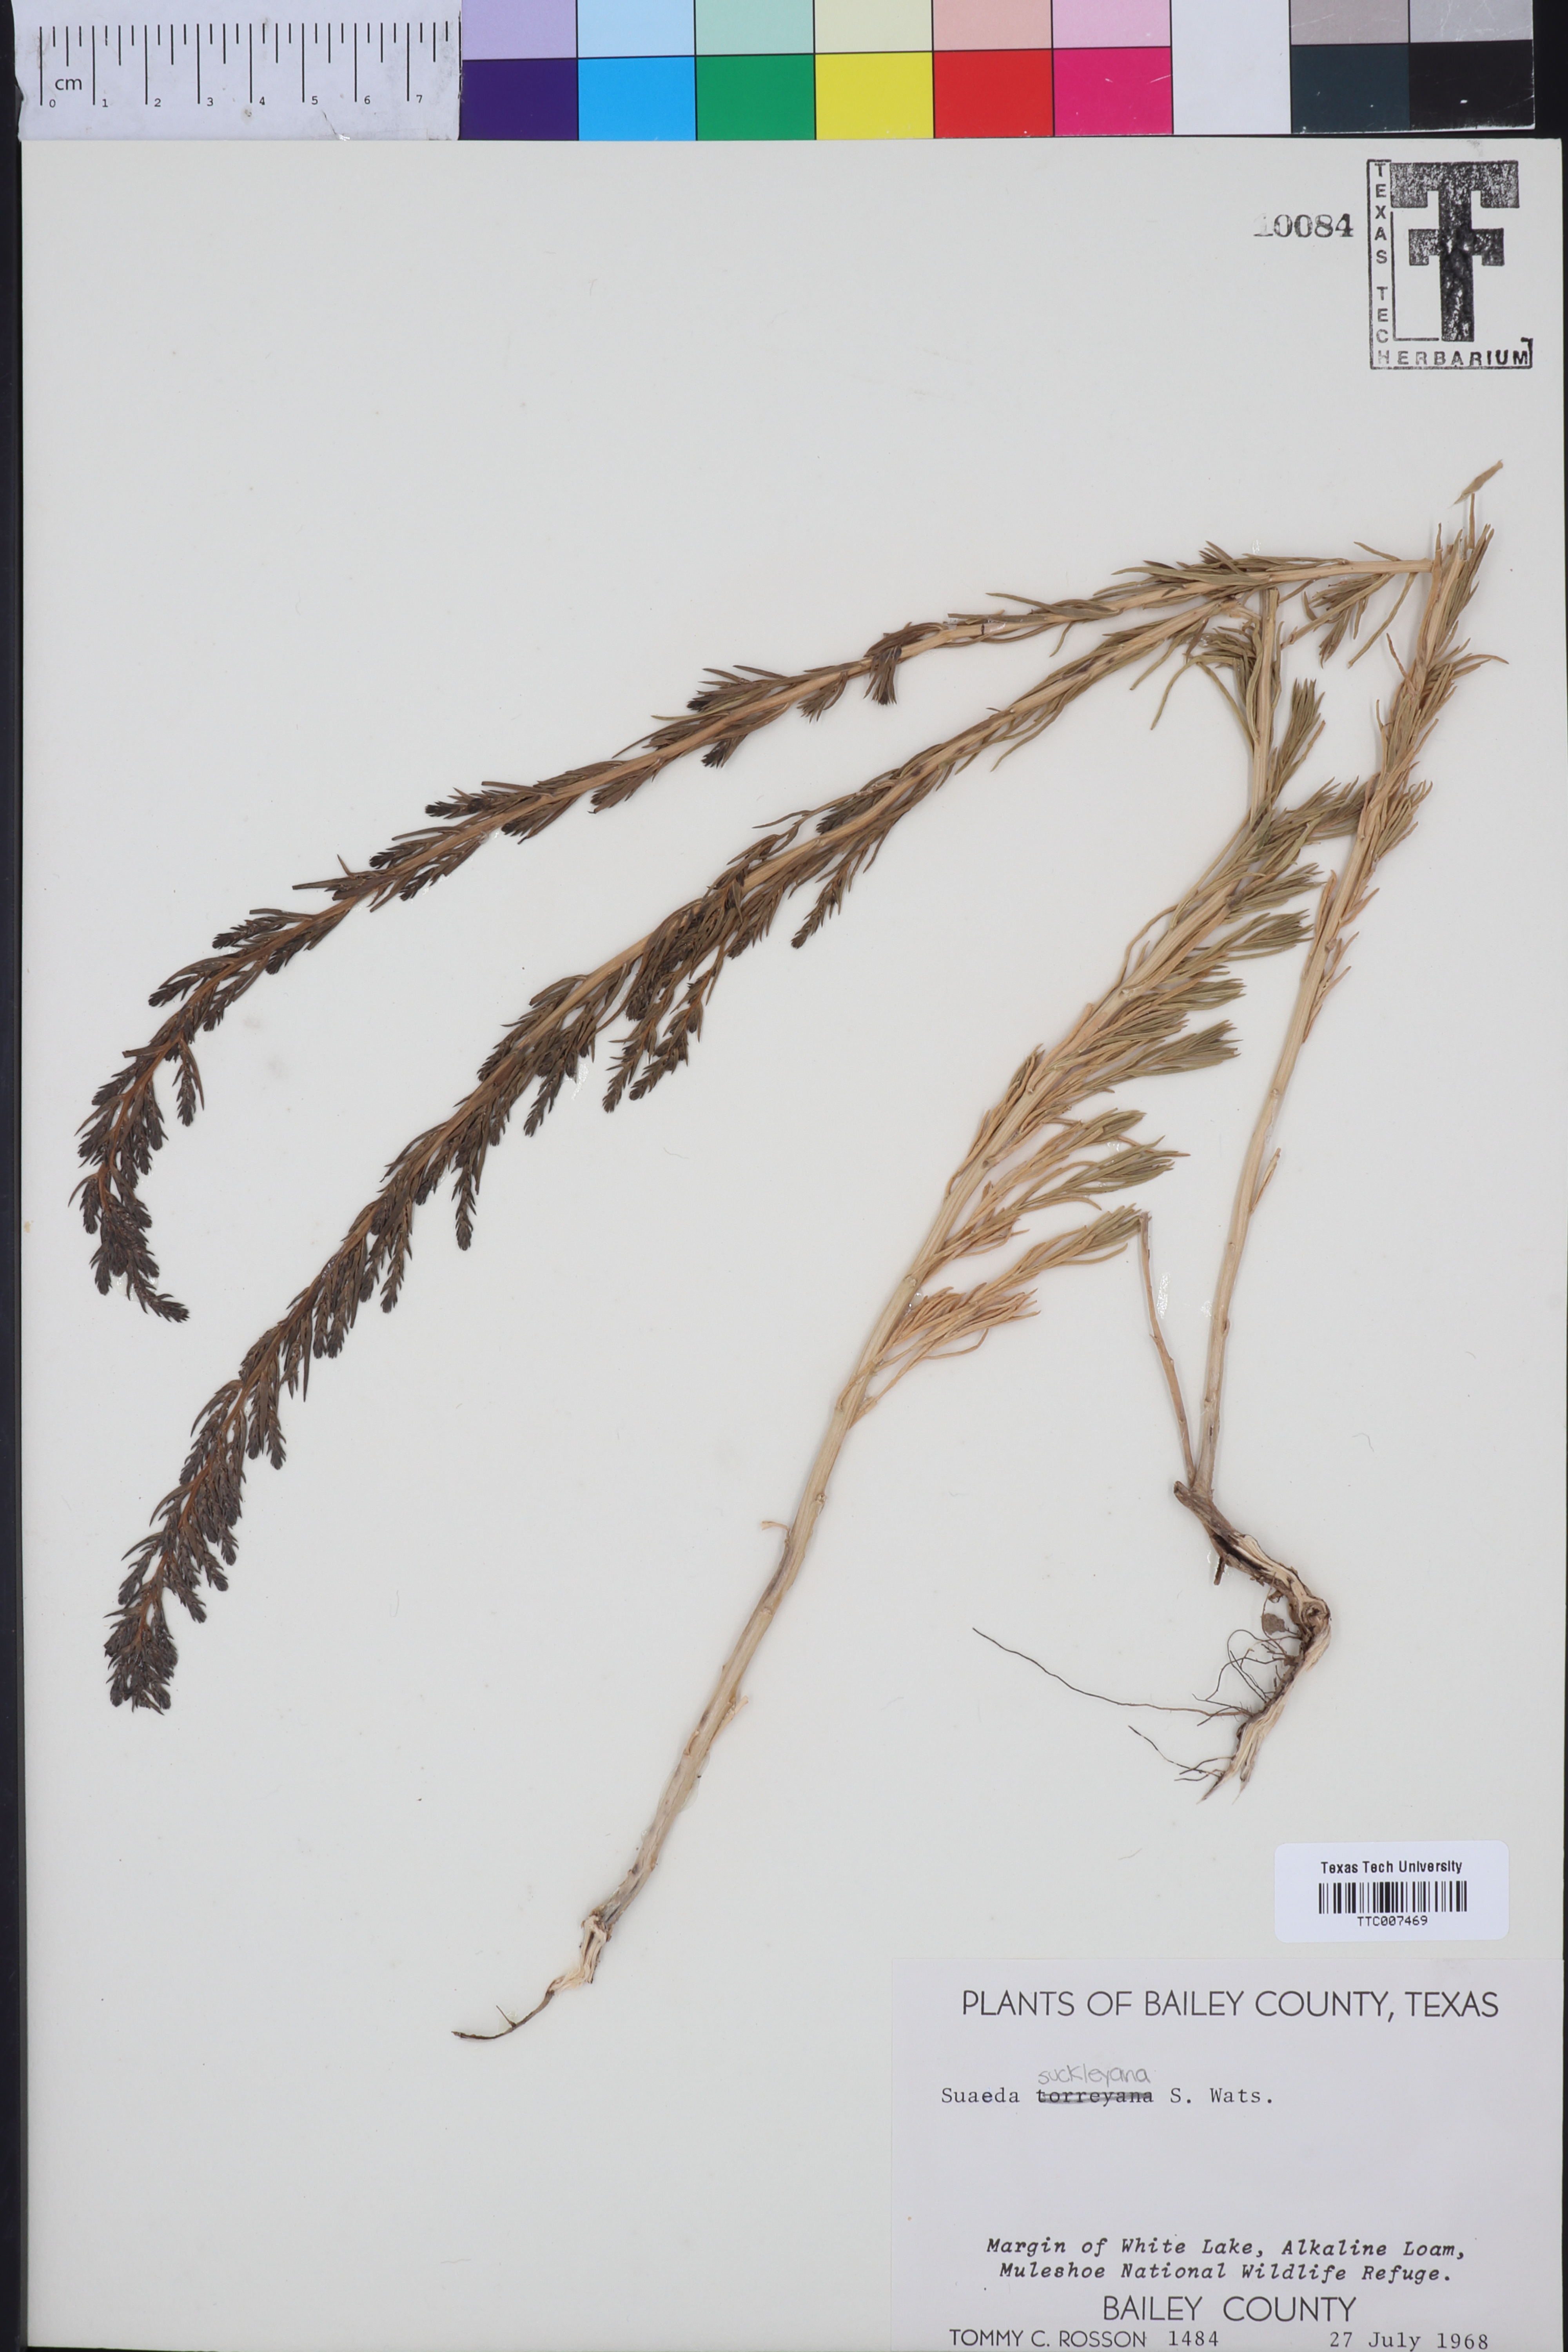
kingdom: Plantae
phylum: Tracheophyta
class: Magnoliopsida
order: Caryophyllales
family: Amaranthaceae
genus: Suaeda
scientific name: Suaeda nigra
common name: Bush seepweed
